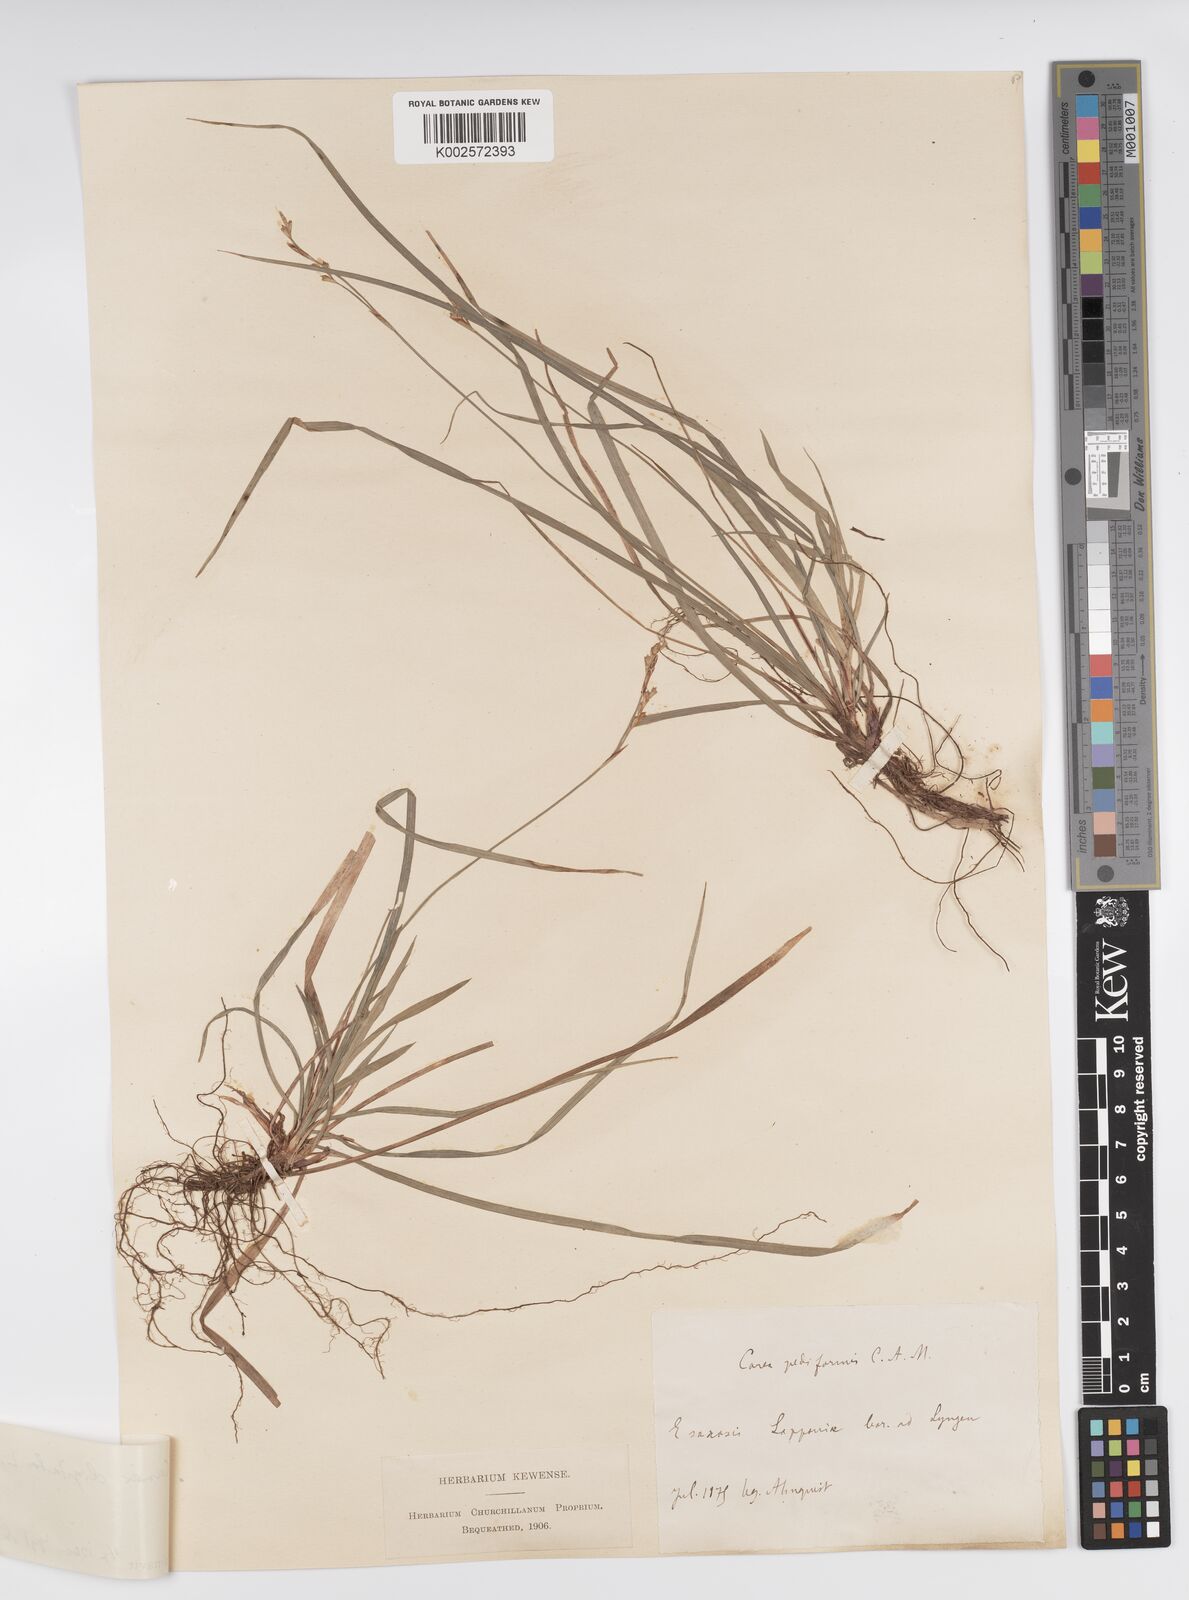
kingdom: Plantae
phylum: Tracheophyta
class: Liliopsida
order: Poales
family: Cyperaceae
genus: Carex
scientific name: Carex digitata
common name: Fingered sedge
